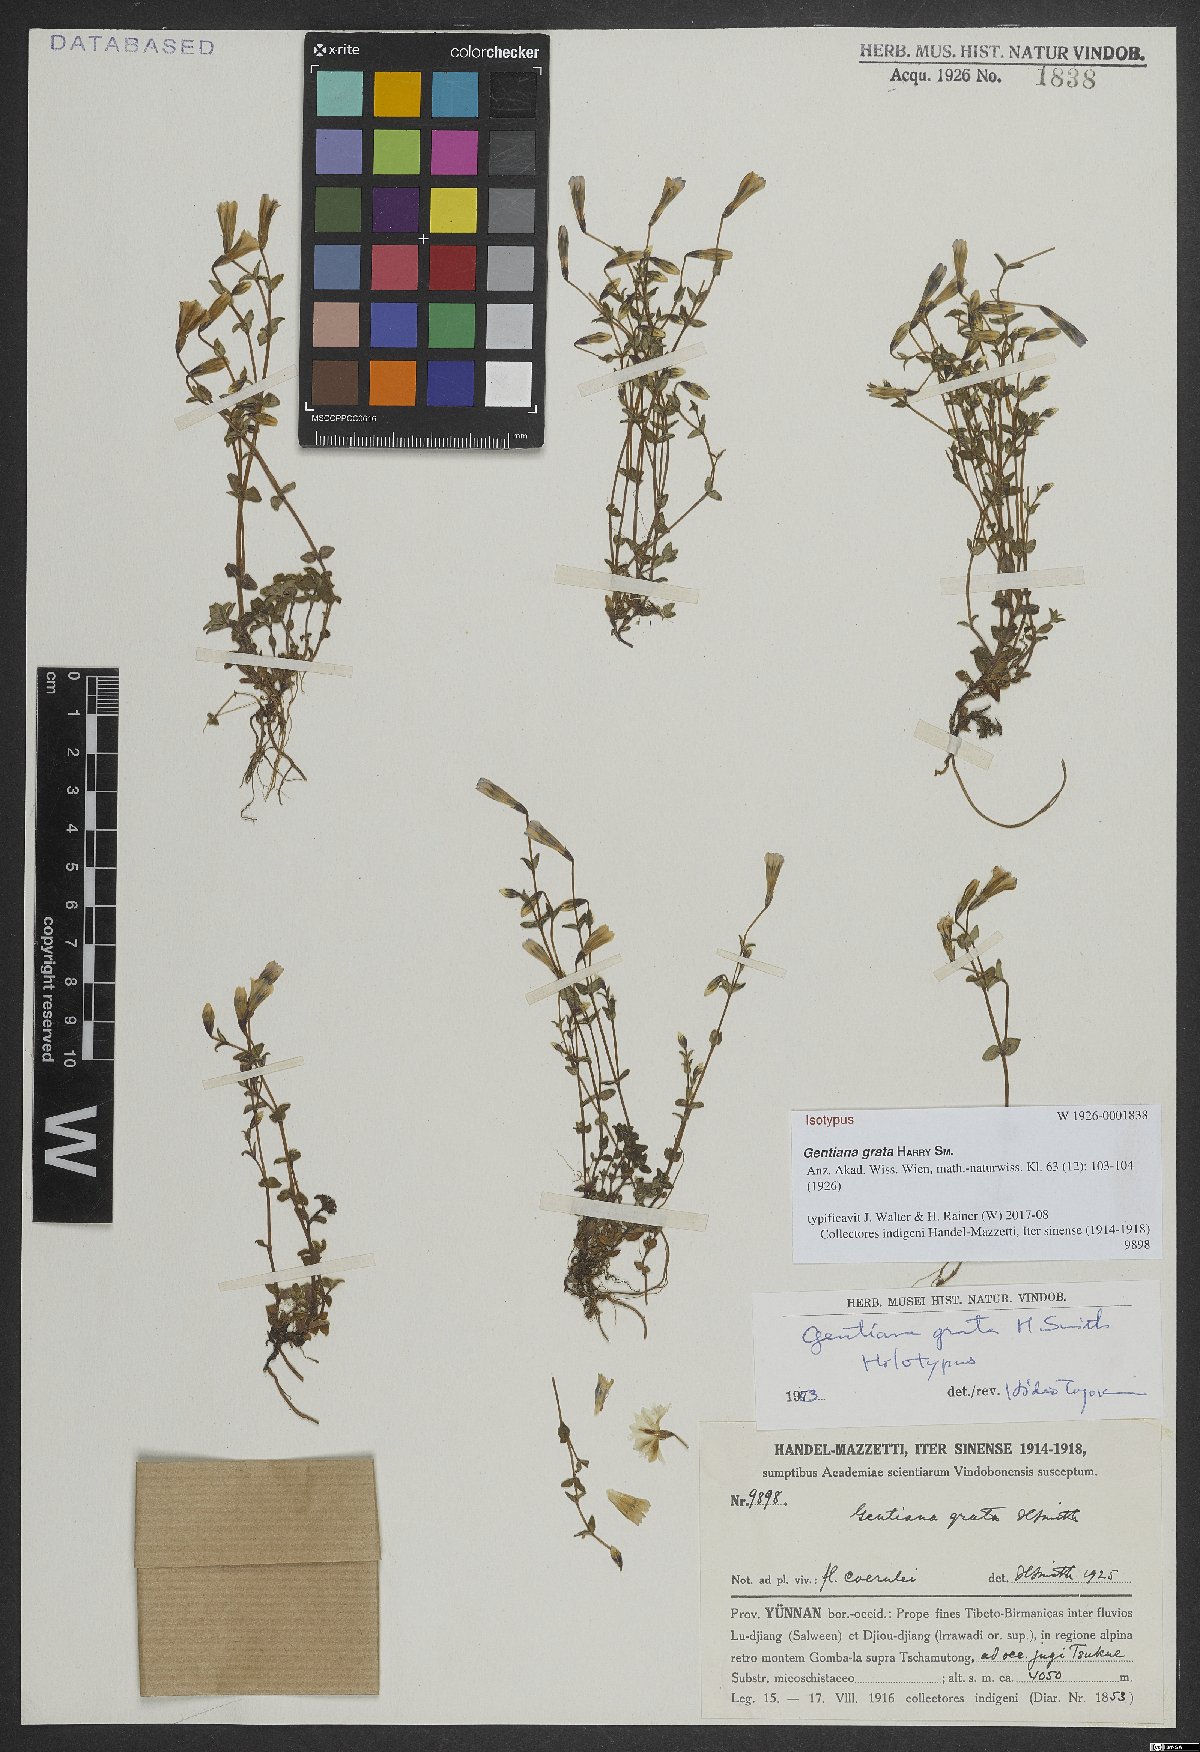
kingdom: Plantae
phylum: Tracheophyta
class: Magnoliopsida
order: Gentianales
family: Gentianaceae
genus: Gentiana
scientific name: Gentiana grata
